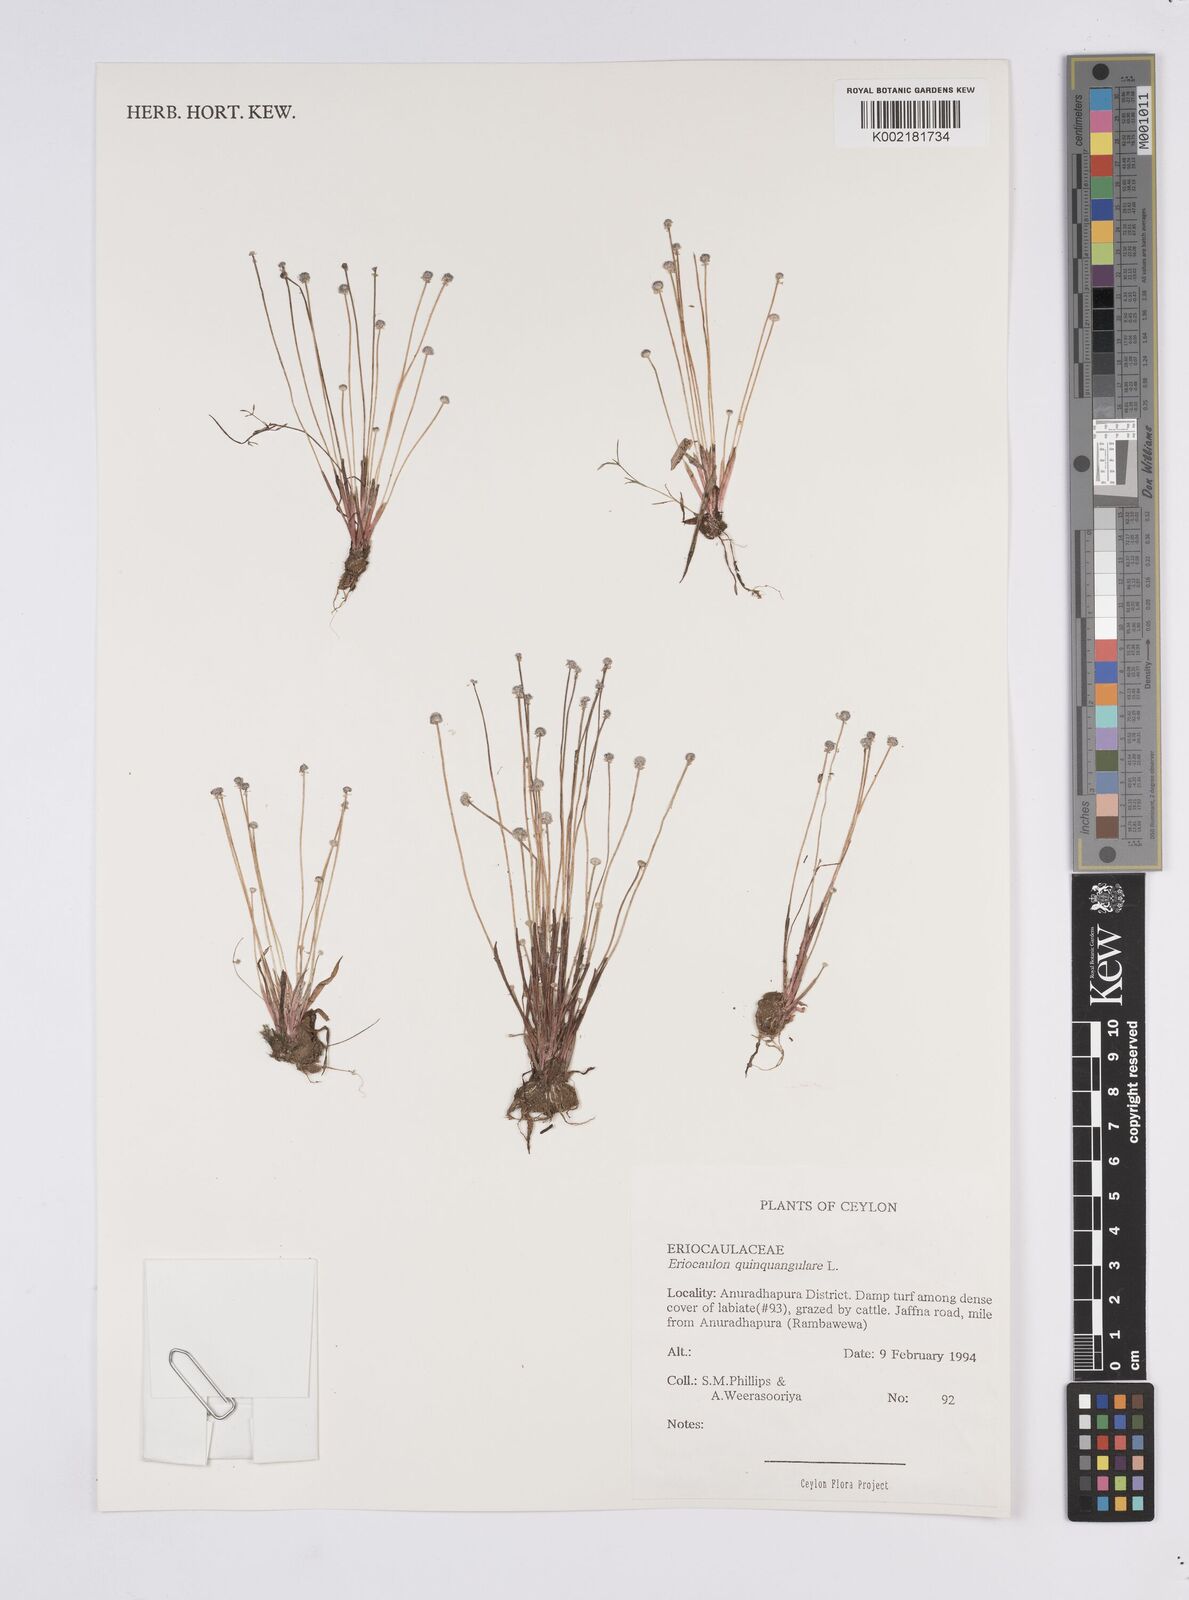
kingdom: Plantae
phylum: Tracheophyta
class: Liliopsida
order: Poales
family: Eriocaulaceae
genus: Eriocaulon
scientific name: Eriocaulon quinquangulare
